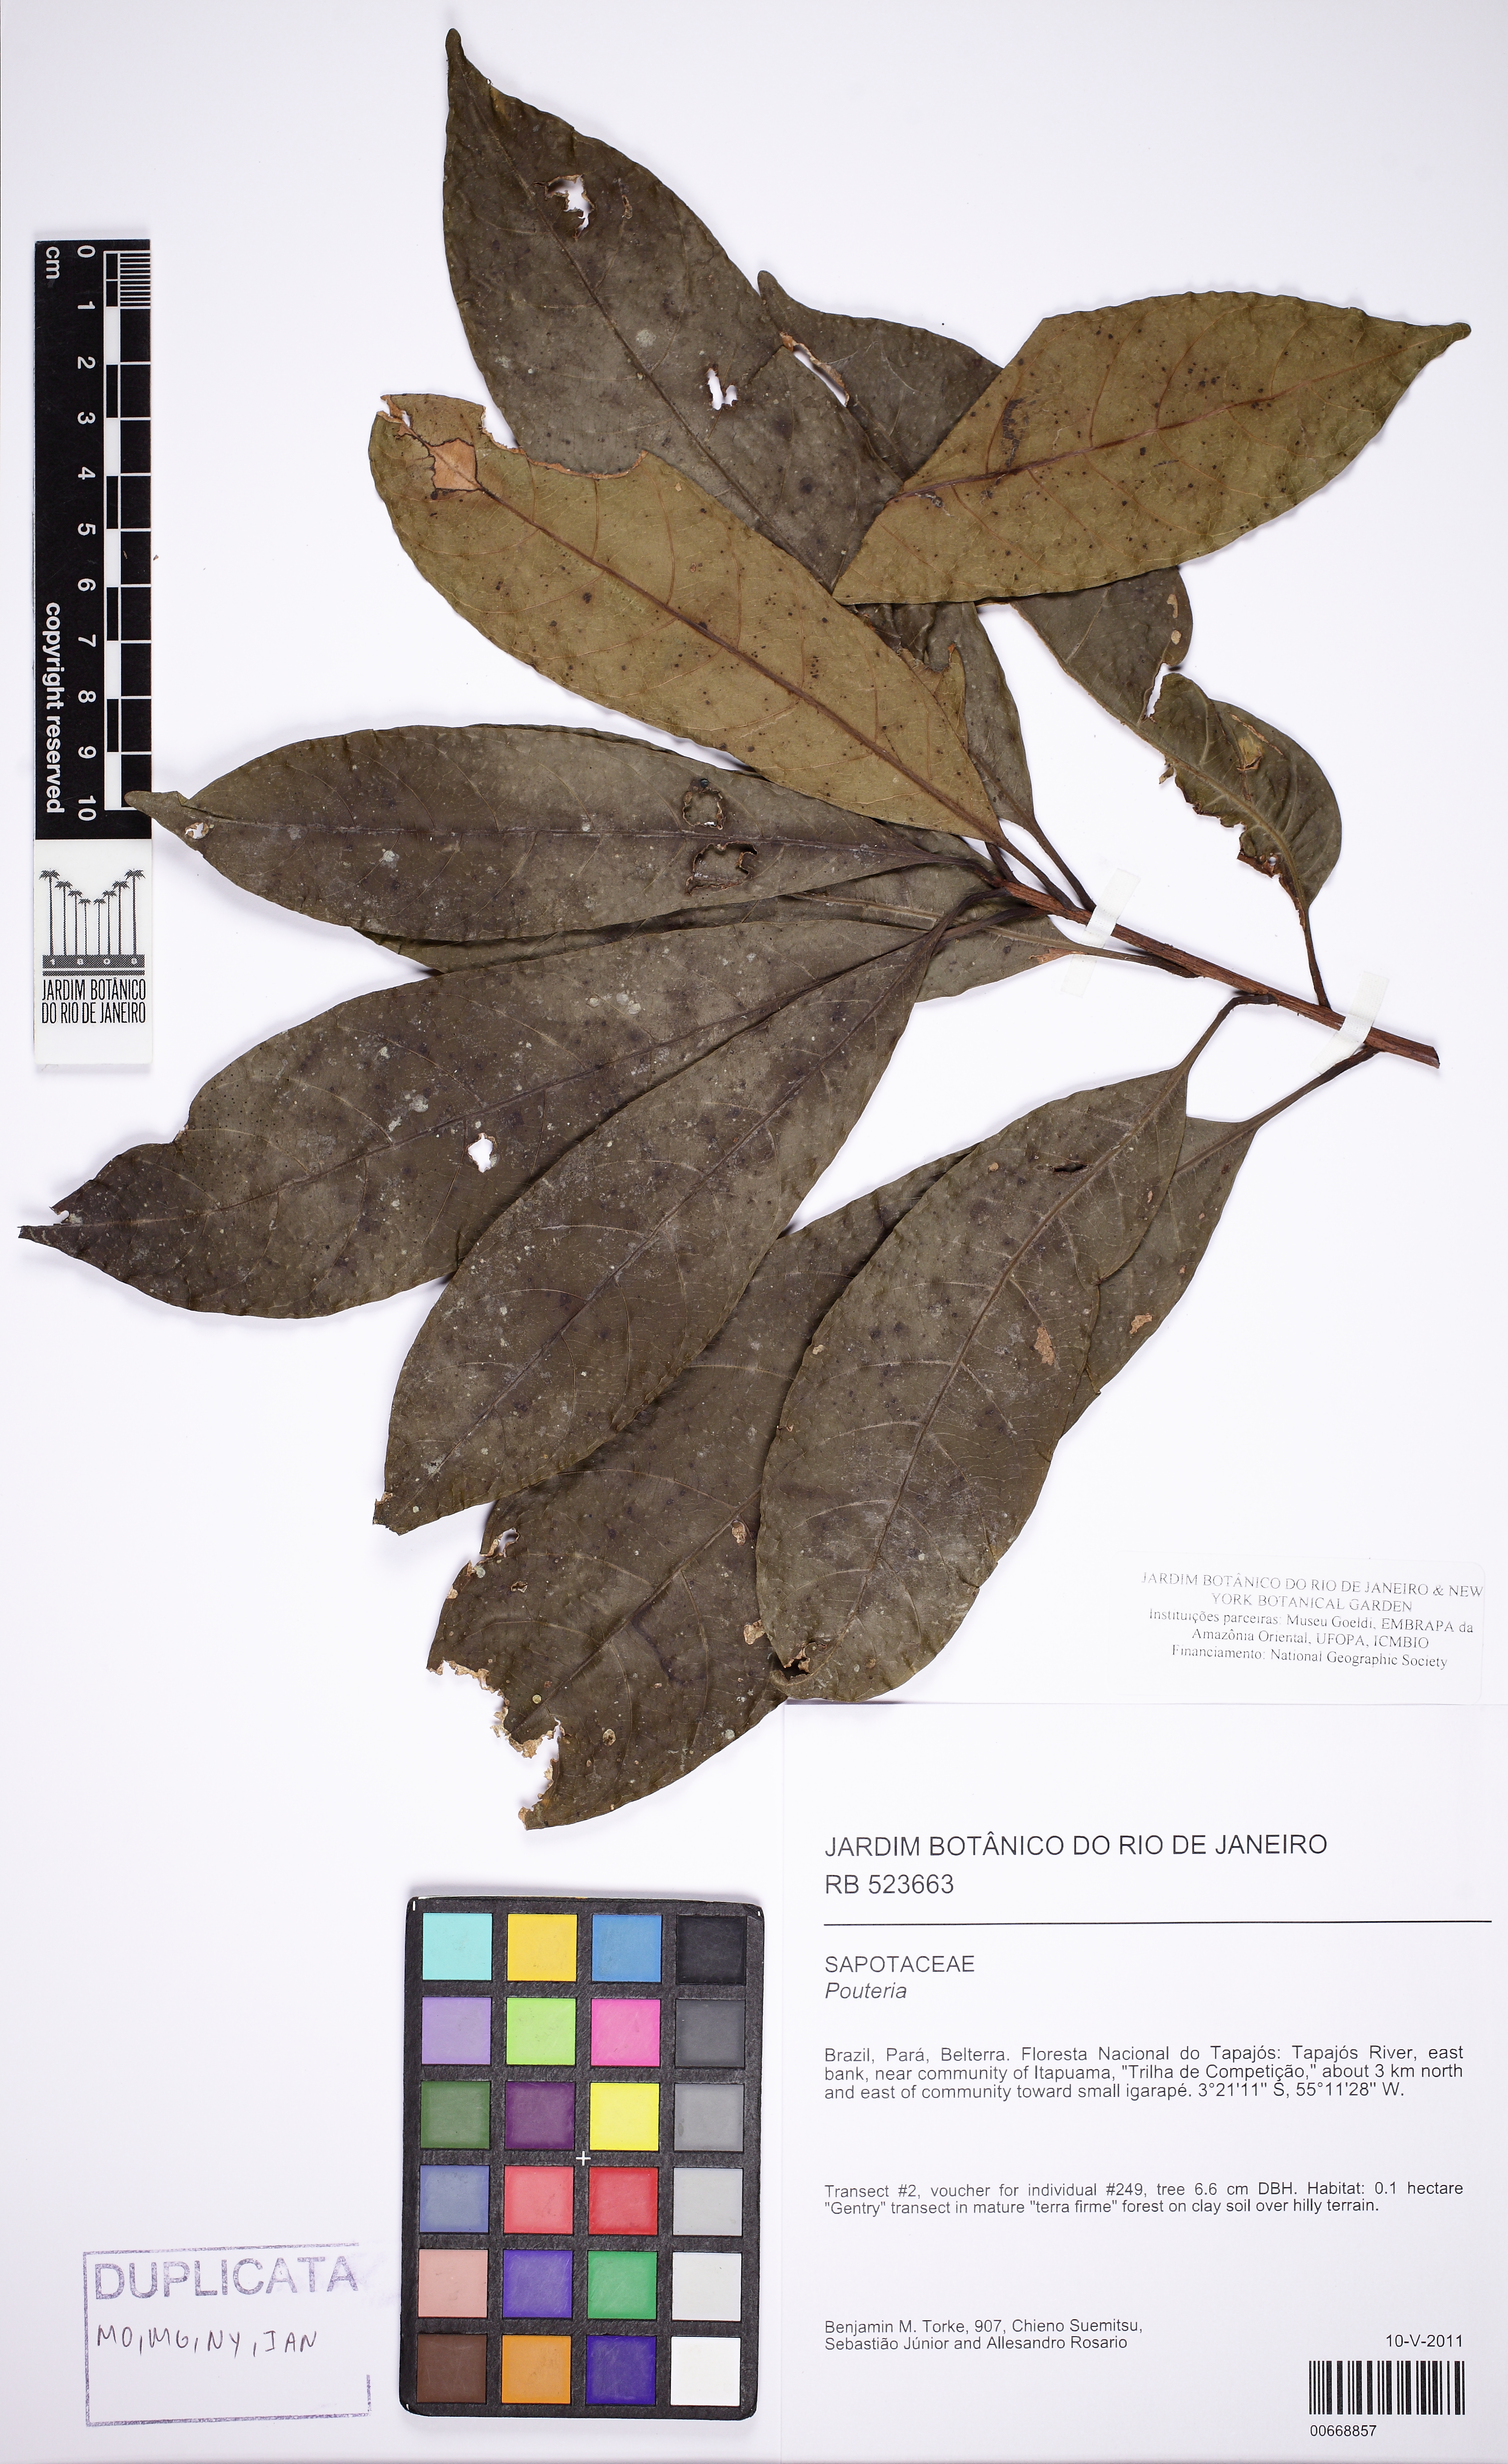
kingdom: Plantae
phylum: Tracheophyta
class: Magnoliopsida
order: Ericales
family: Sapotaceae
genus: Pouteria
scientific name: Pouteria
